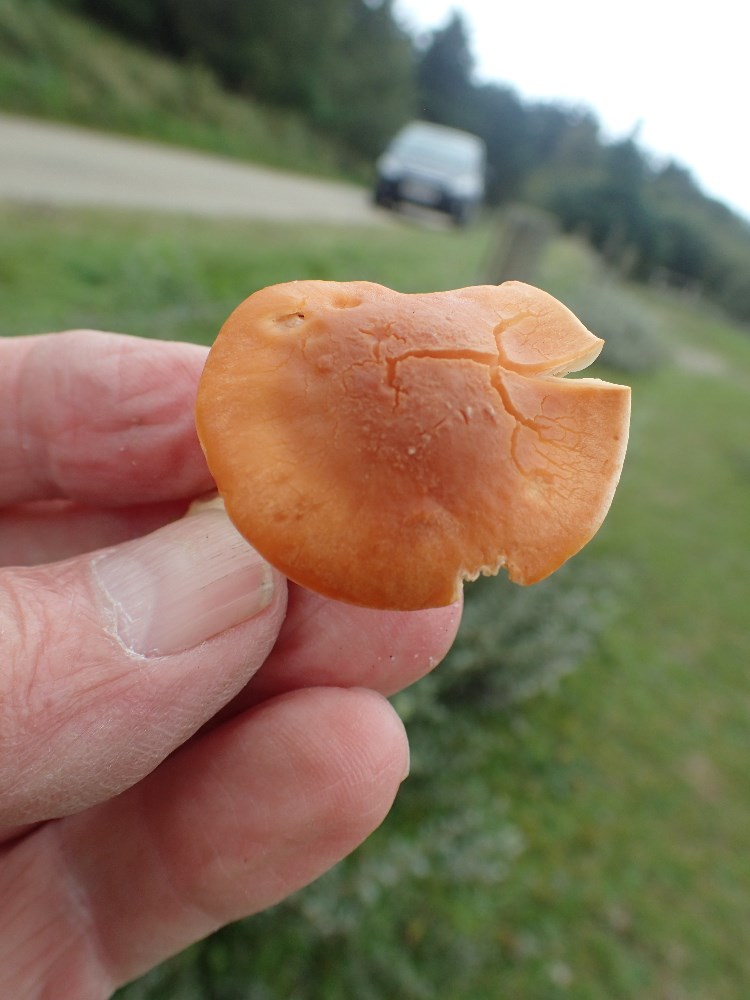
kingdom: Fungi
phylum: Basidiomycota
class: Agaricomycetes
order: Agaricales
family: Hygrophoraceae
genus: Cuphophyllus
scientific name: Cuphophyllus pratensis
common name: eng-vokshat
